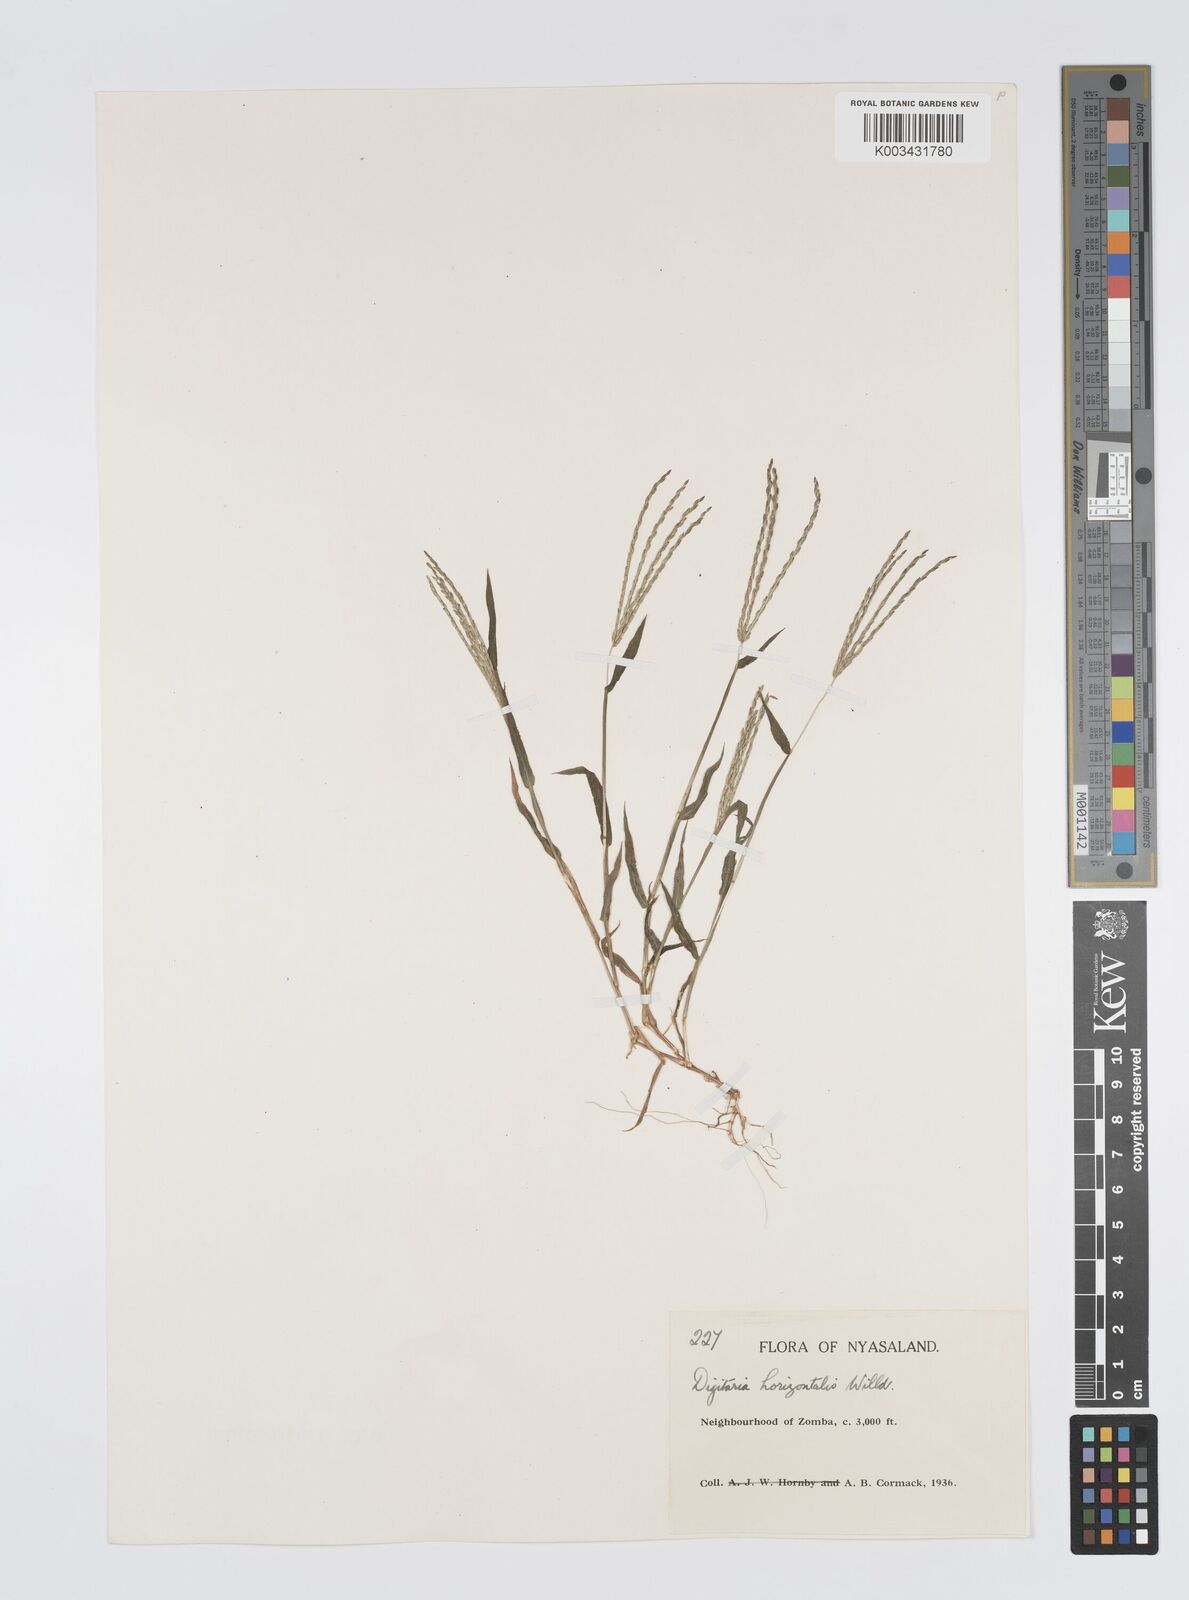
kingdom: Plantae
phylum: Tracheophyta
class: Liliopsida
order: Poales
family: Poaceae
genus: Digitaria
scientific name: Digitaria nuda
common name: Naked crabgrass
